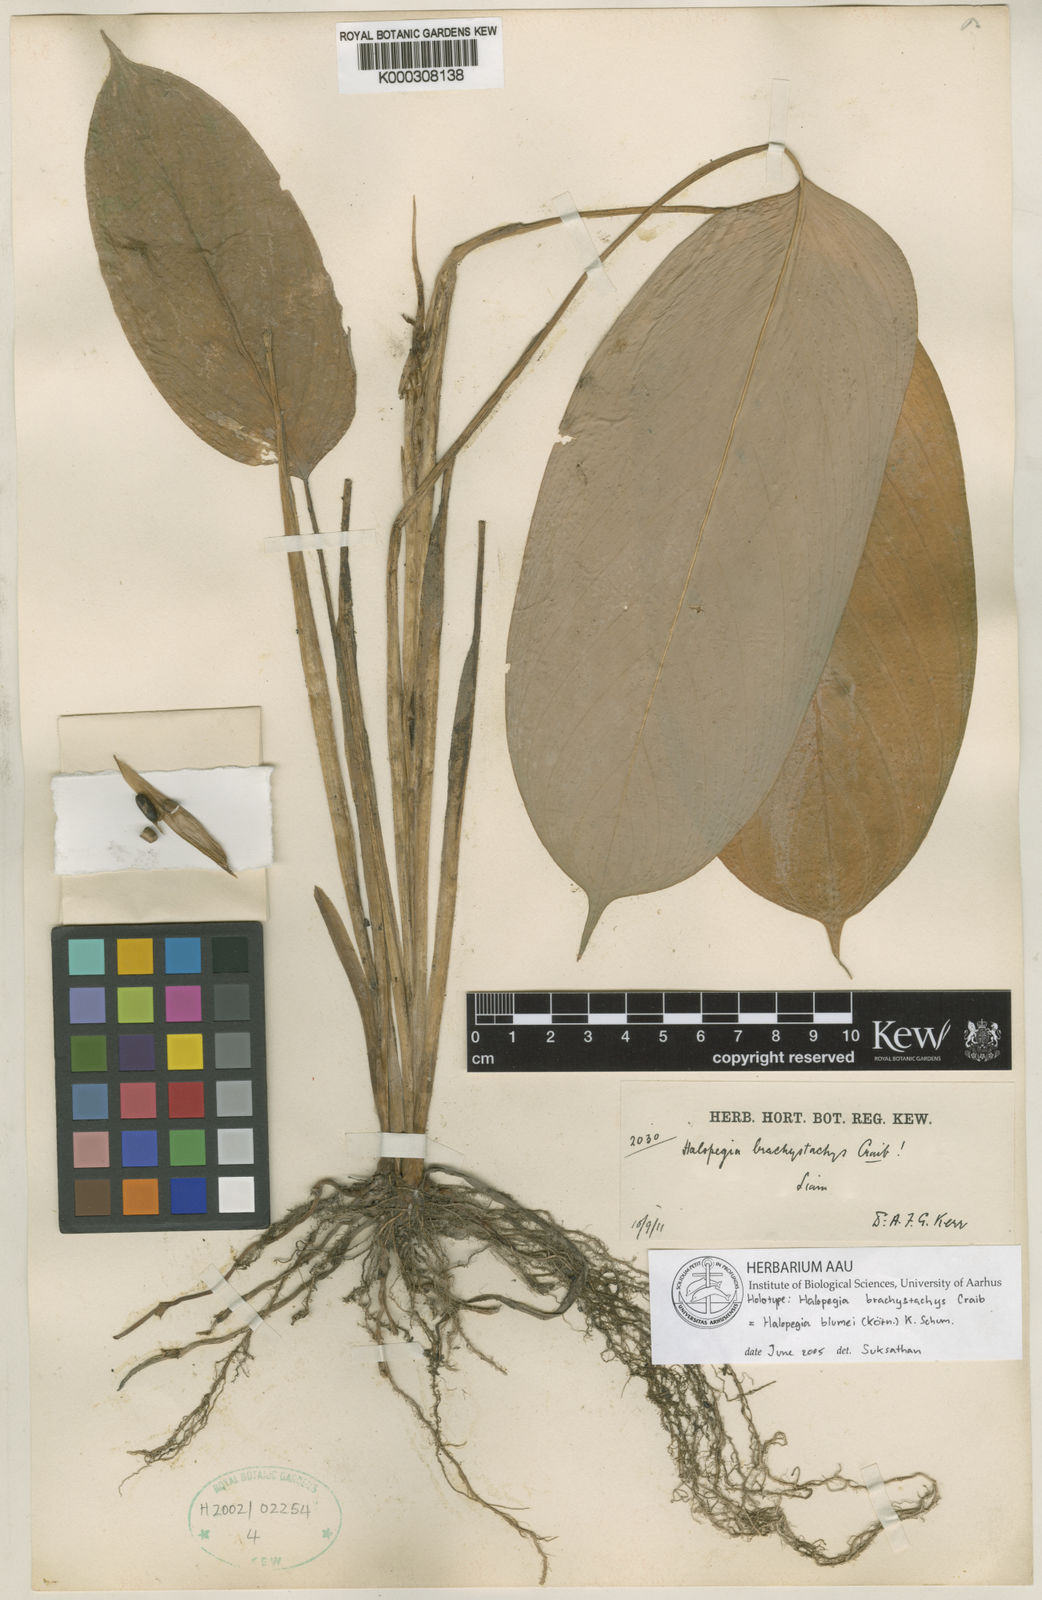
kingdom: Plantae
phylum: Tracheophyta
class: Liliopsida
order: Zingiberales
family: Marantaceae
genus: Halopegia
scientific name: Halopegia
